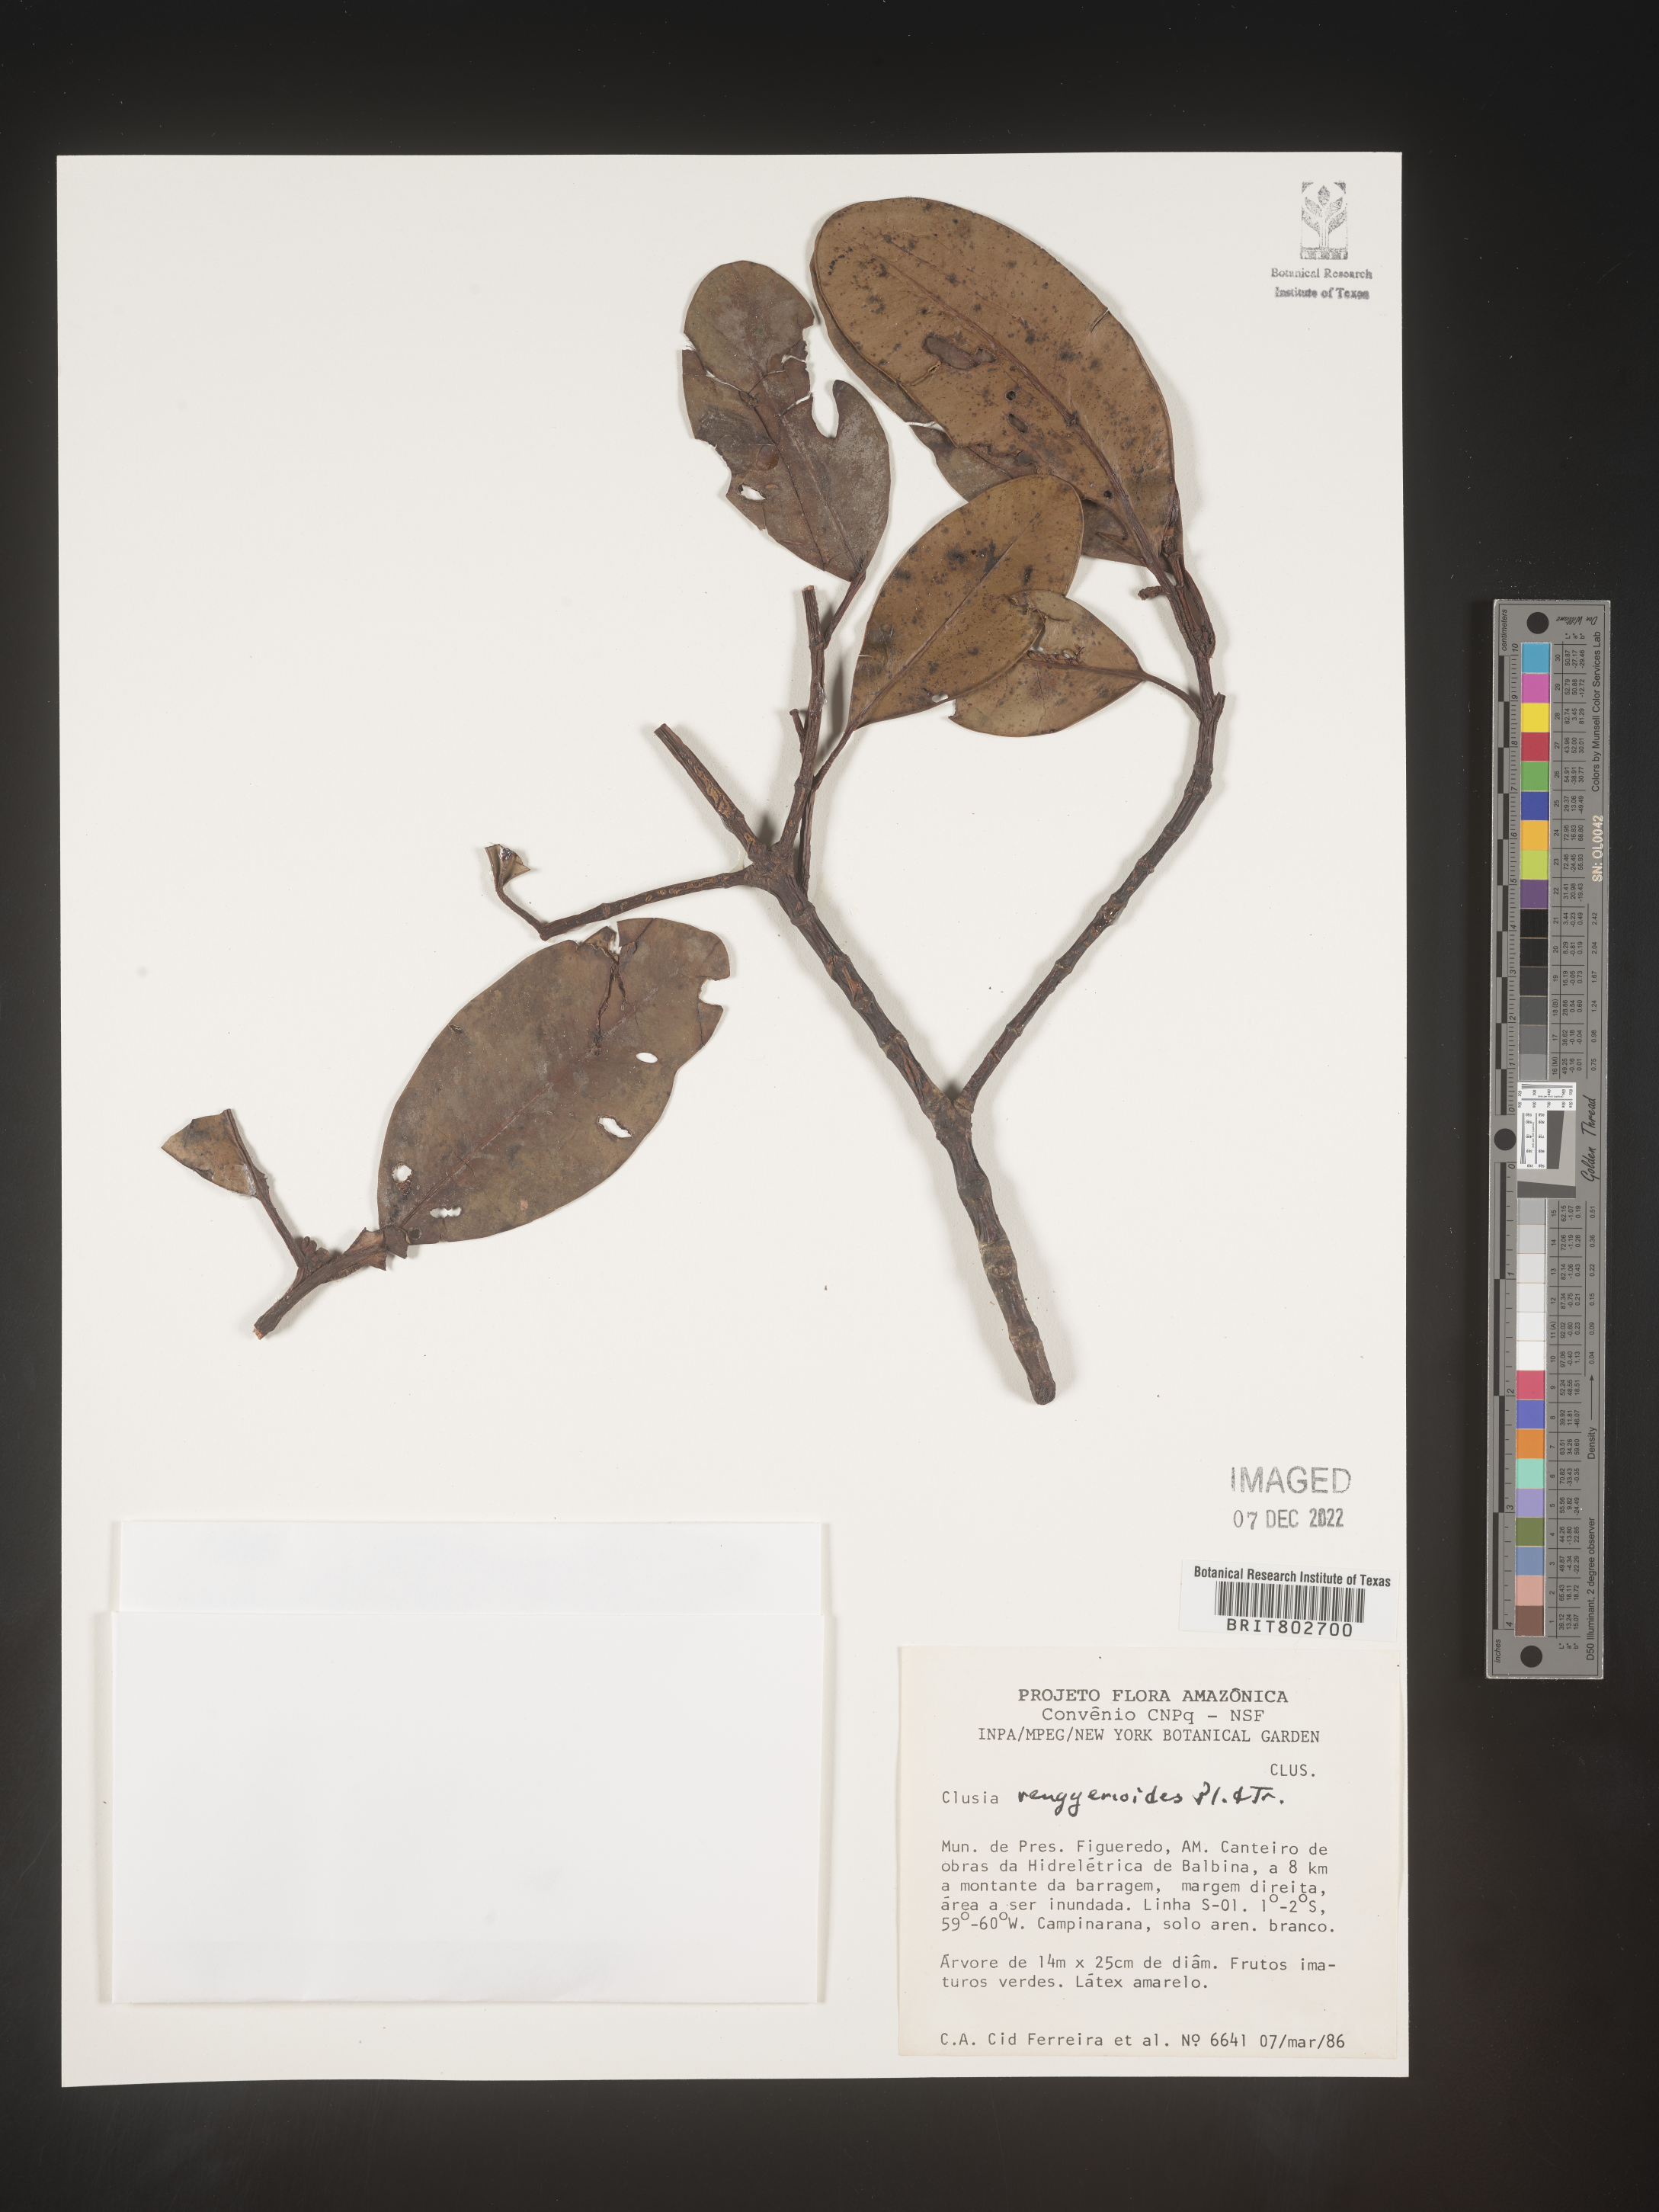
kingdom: Plantae
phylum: Tracheophyta
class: Magnoliopsida
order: Malpighiales
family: Clusiaceae
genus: Clusia
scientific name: Clusia renggerioides
